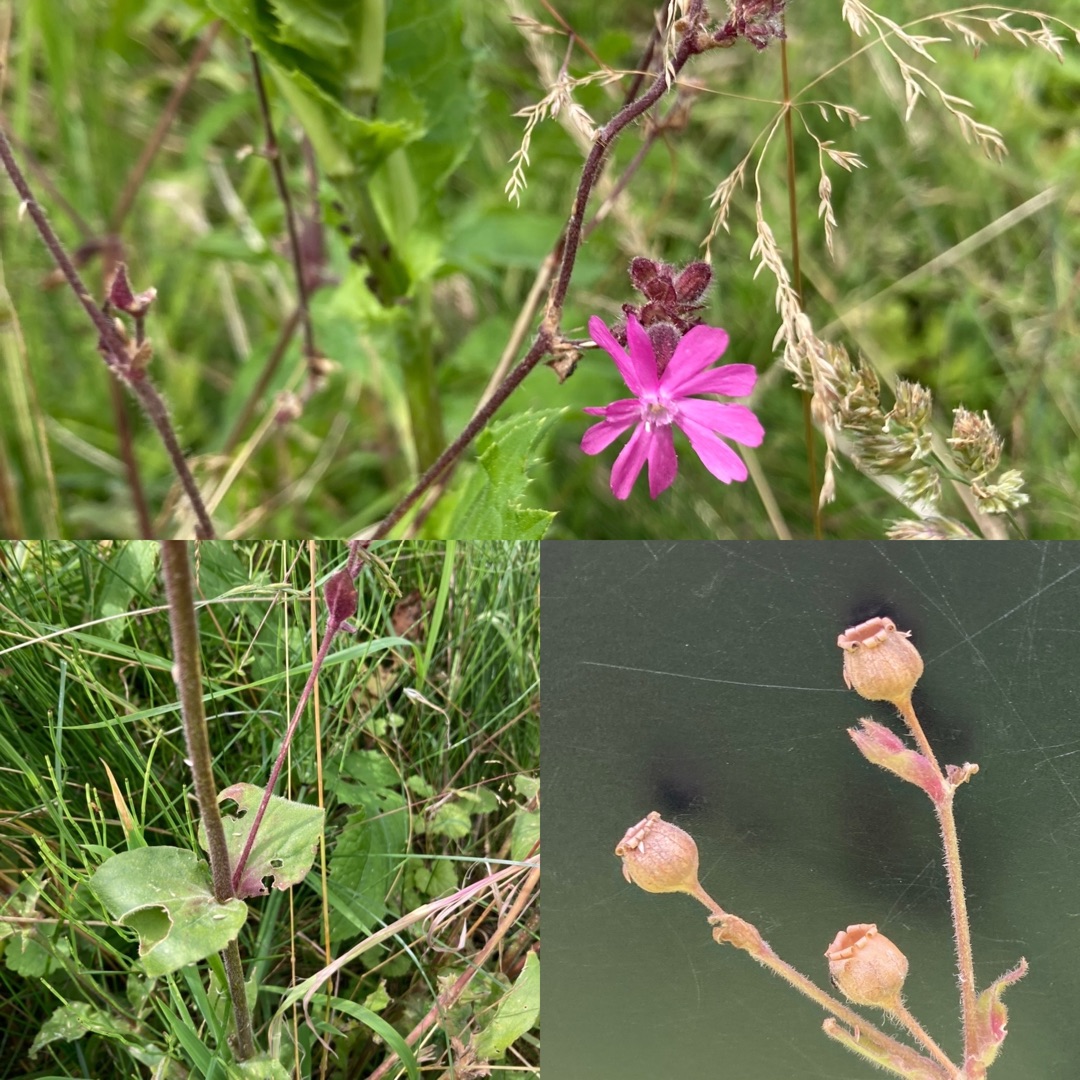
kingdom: Plantae
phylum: Tracheophyta
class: Magnoliopsida
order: Caryophyllales
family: Caryophyllaceae
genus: Silene
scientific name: Silene dioica
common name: Dagpragtstjerne
